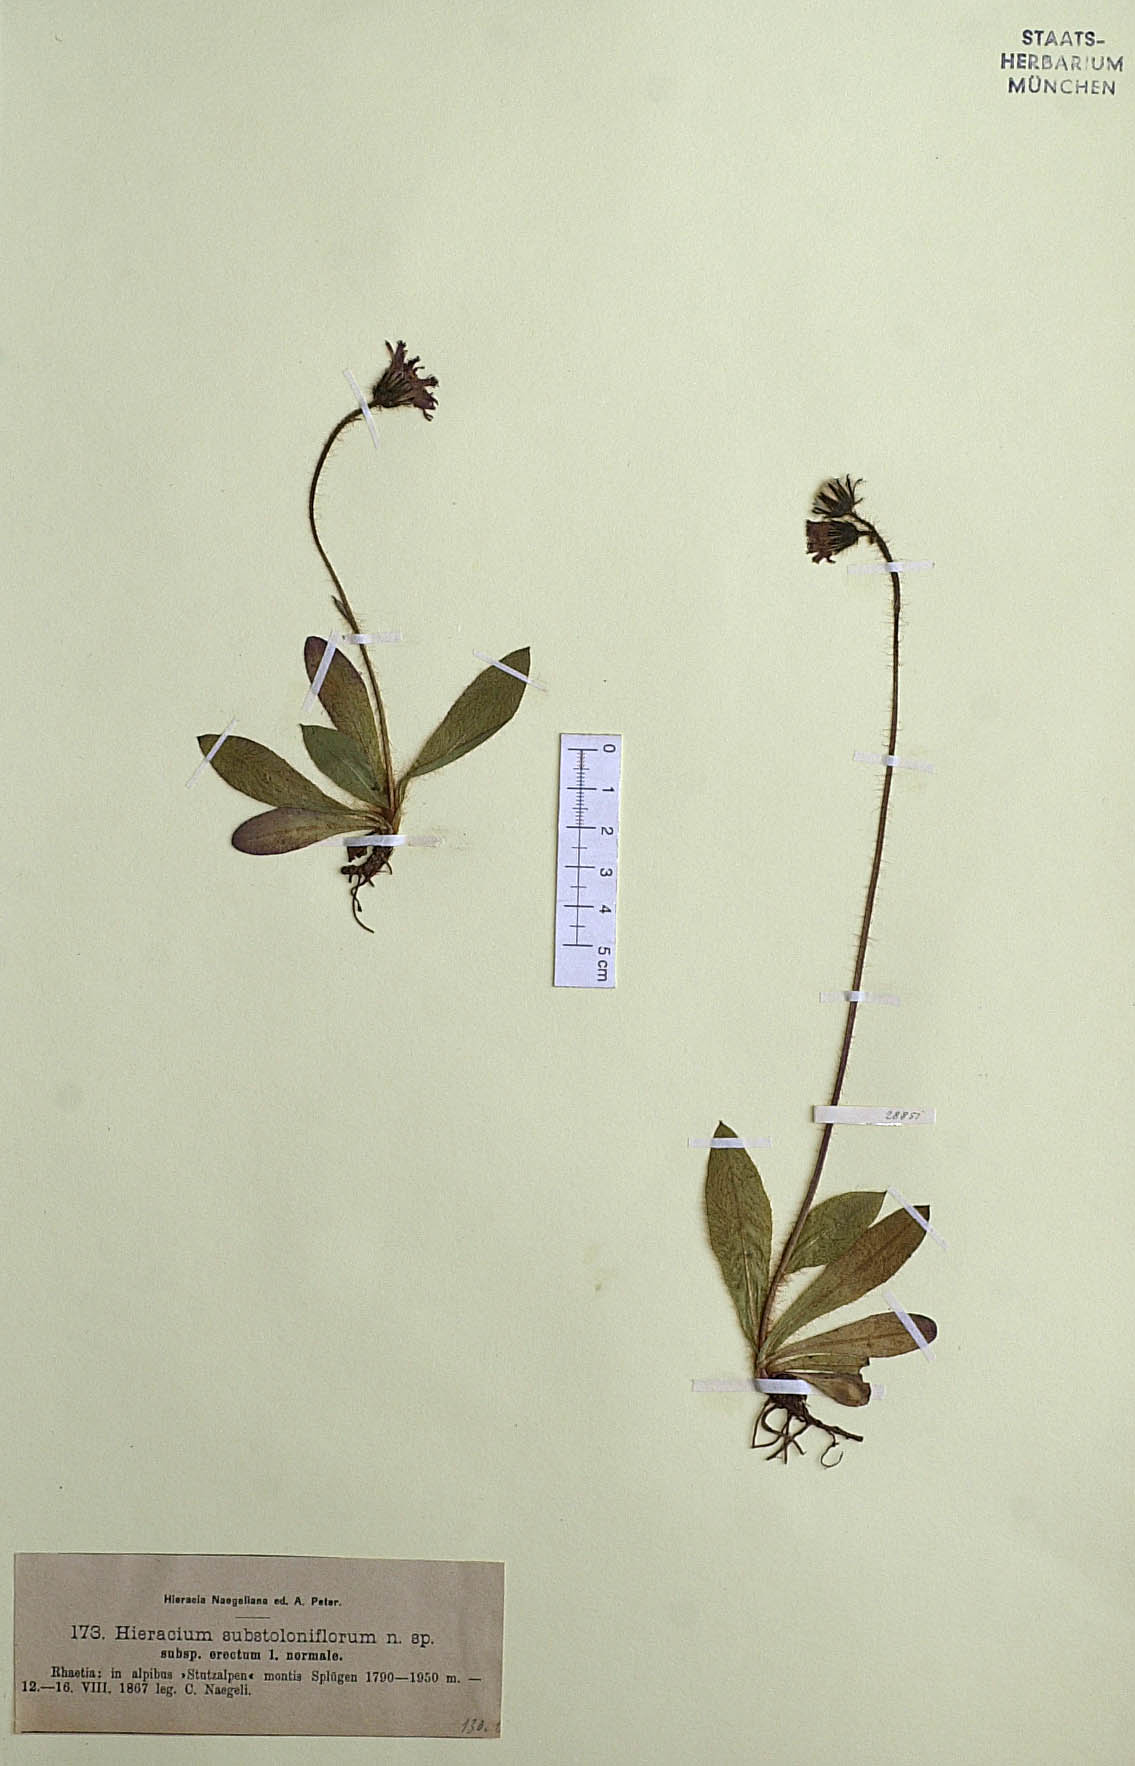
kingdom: Plantae
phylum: Tracheophyta
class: Magnoliopsida
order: Asterales
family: Asteraceae
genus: Pilosella
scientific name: Pilosella rubra
